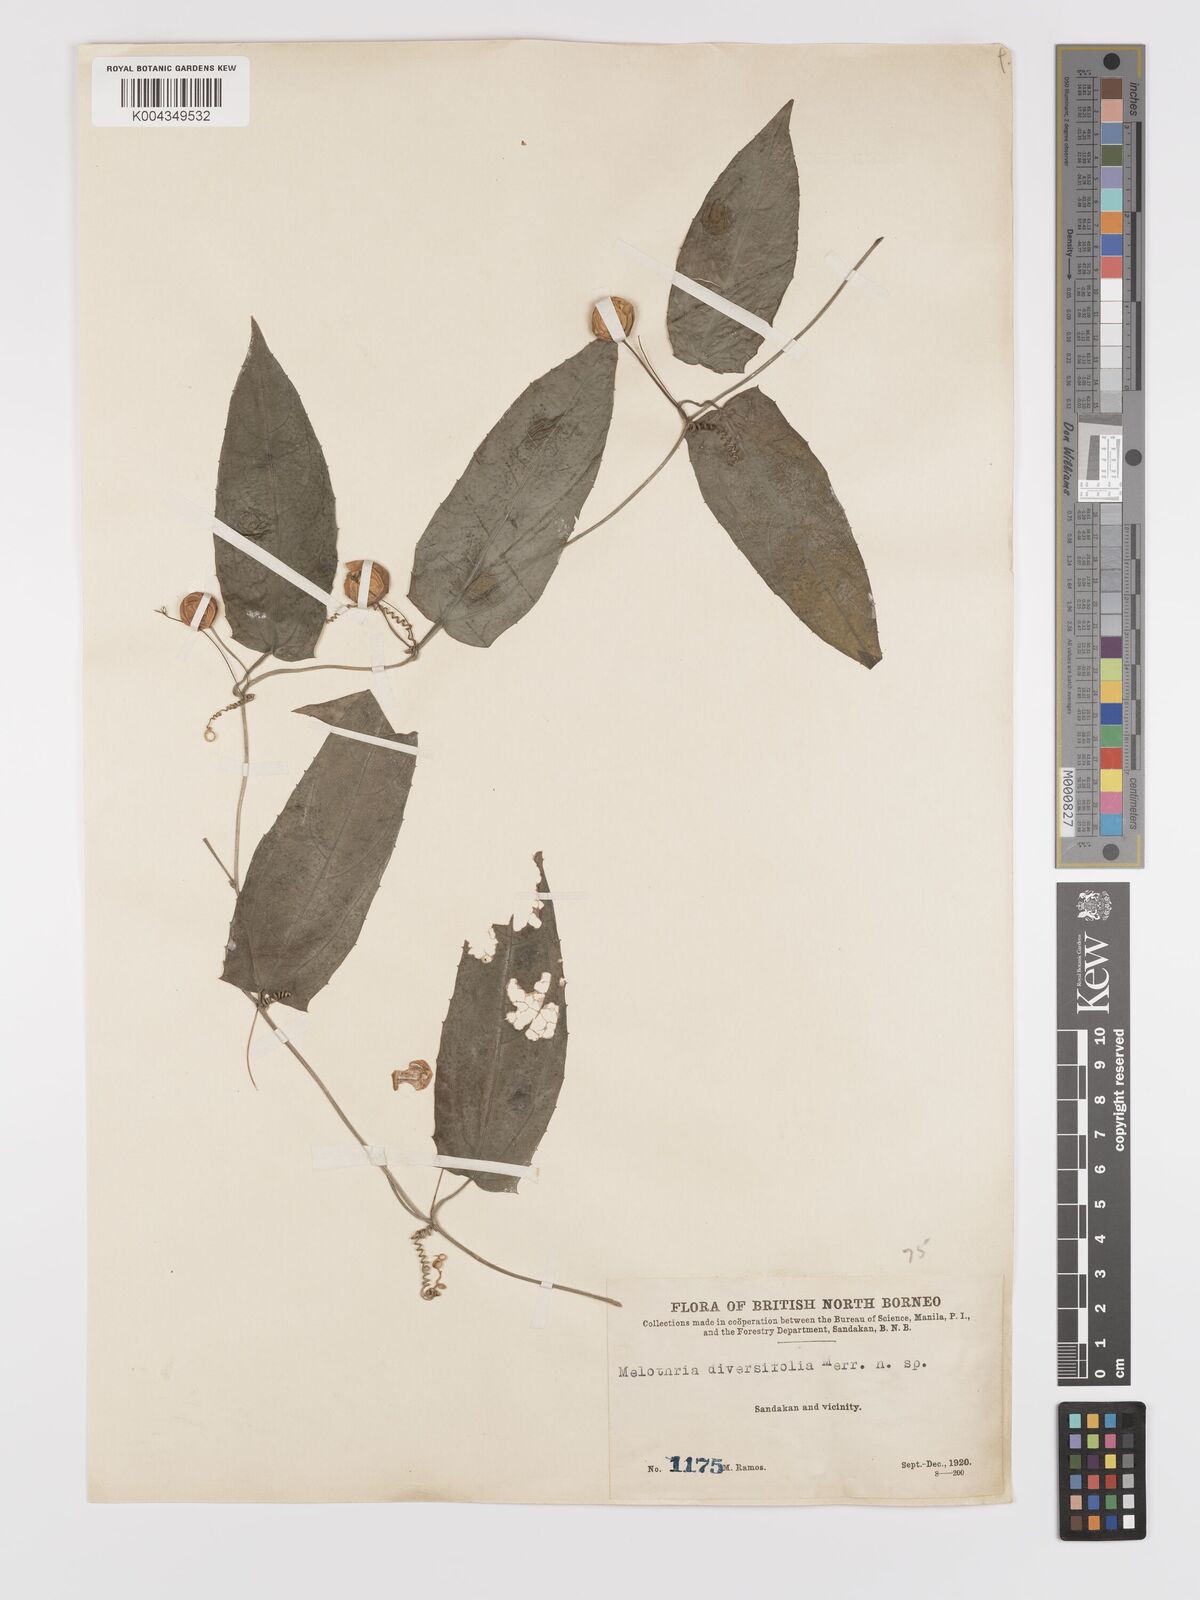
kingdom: Plantae
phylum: Tracheophyta
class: Magnoliopsida
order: Cucurbitales
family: Cucurbitaceae
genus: Zehneria
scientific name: Zehneria
